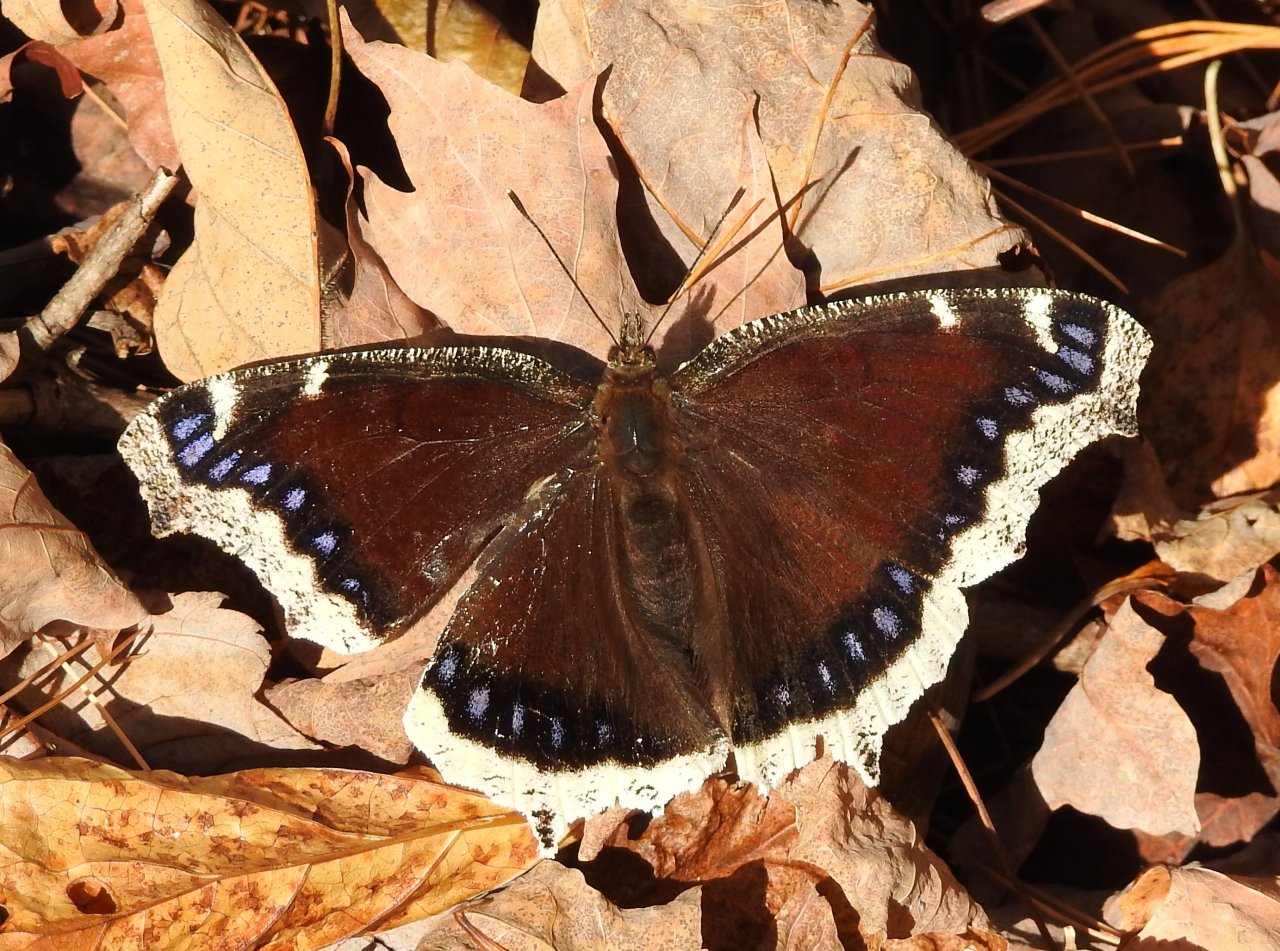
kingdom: Animalia
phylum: Arthropoda
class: Insecta
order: Lepidoptera
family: Nymphalidae
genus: Nymphalis
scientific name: Nymphalis antiopa
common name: Mourning Cloak
